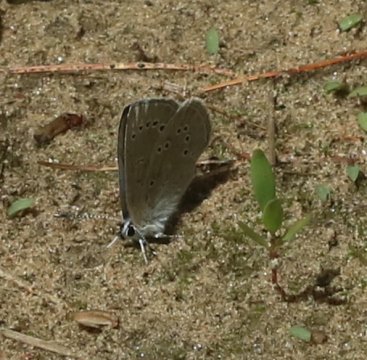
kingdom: Animalia
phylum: Arthropoda
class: Insecta
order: Lepidoptera
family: Lycaenidae
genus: Glaucopsyche
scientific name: Glaucopsyche lygdamus
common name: Silvery Blue
